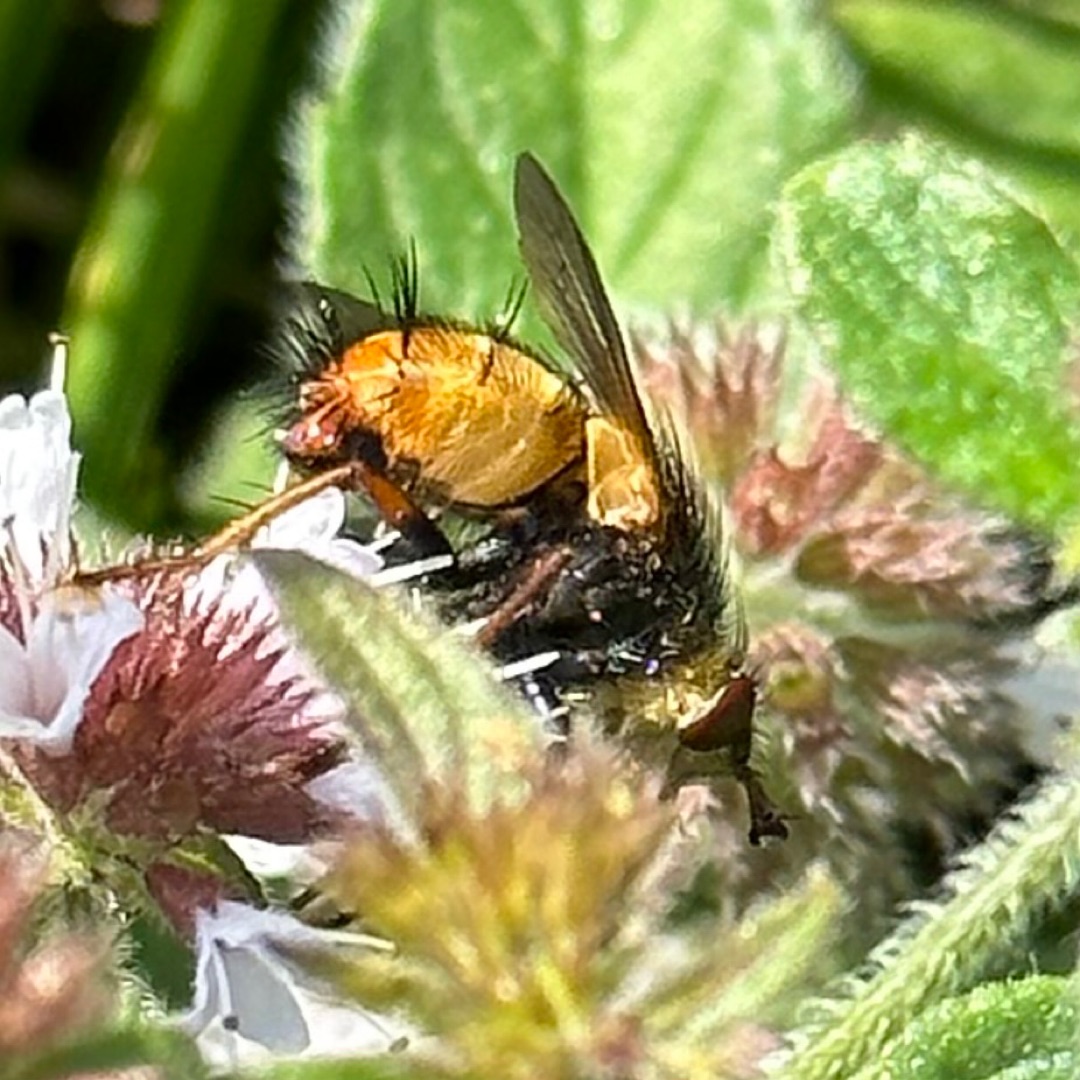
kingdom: Animalia
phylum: Arthropoda
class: Insecta
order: Diptera
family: Tachinidae
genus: Tachina
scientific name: Tachina fera
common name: Mellemfluen oskar
